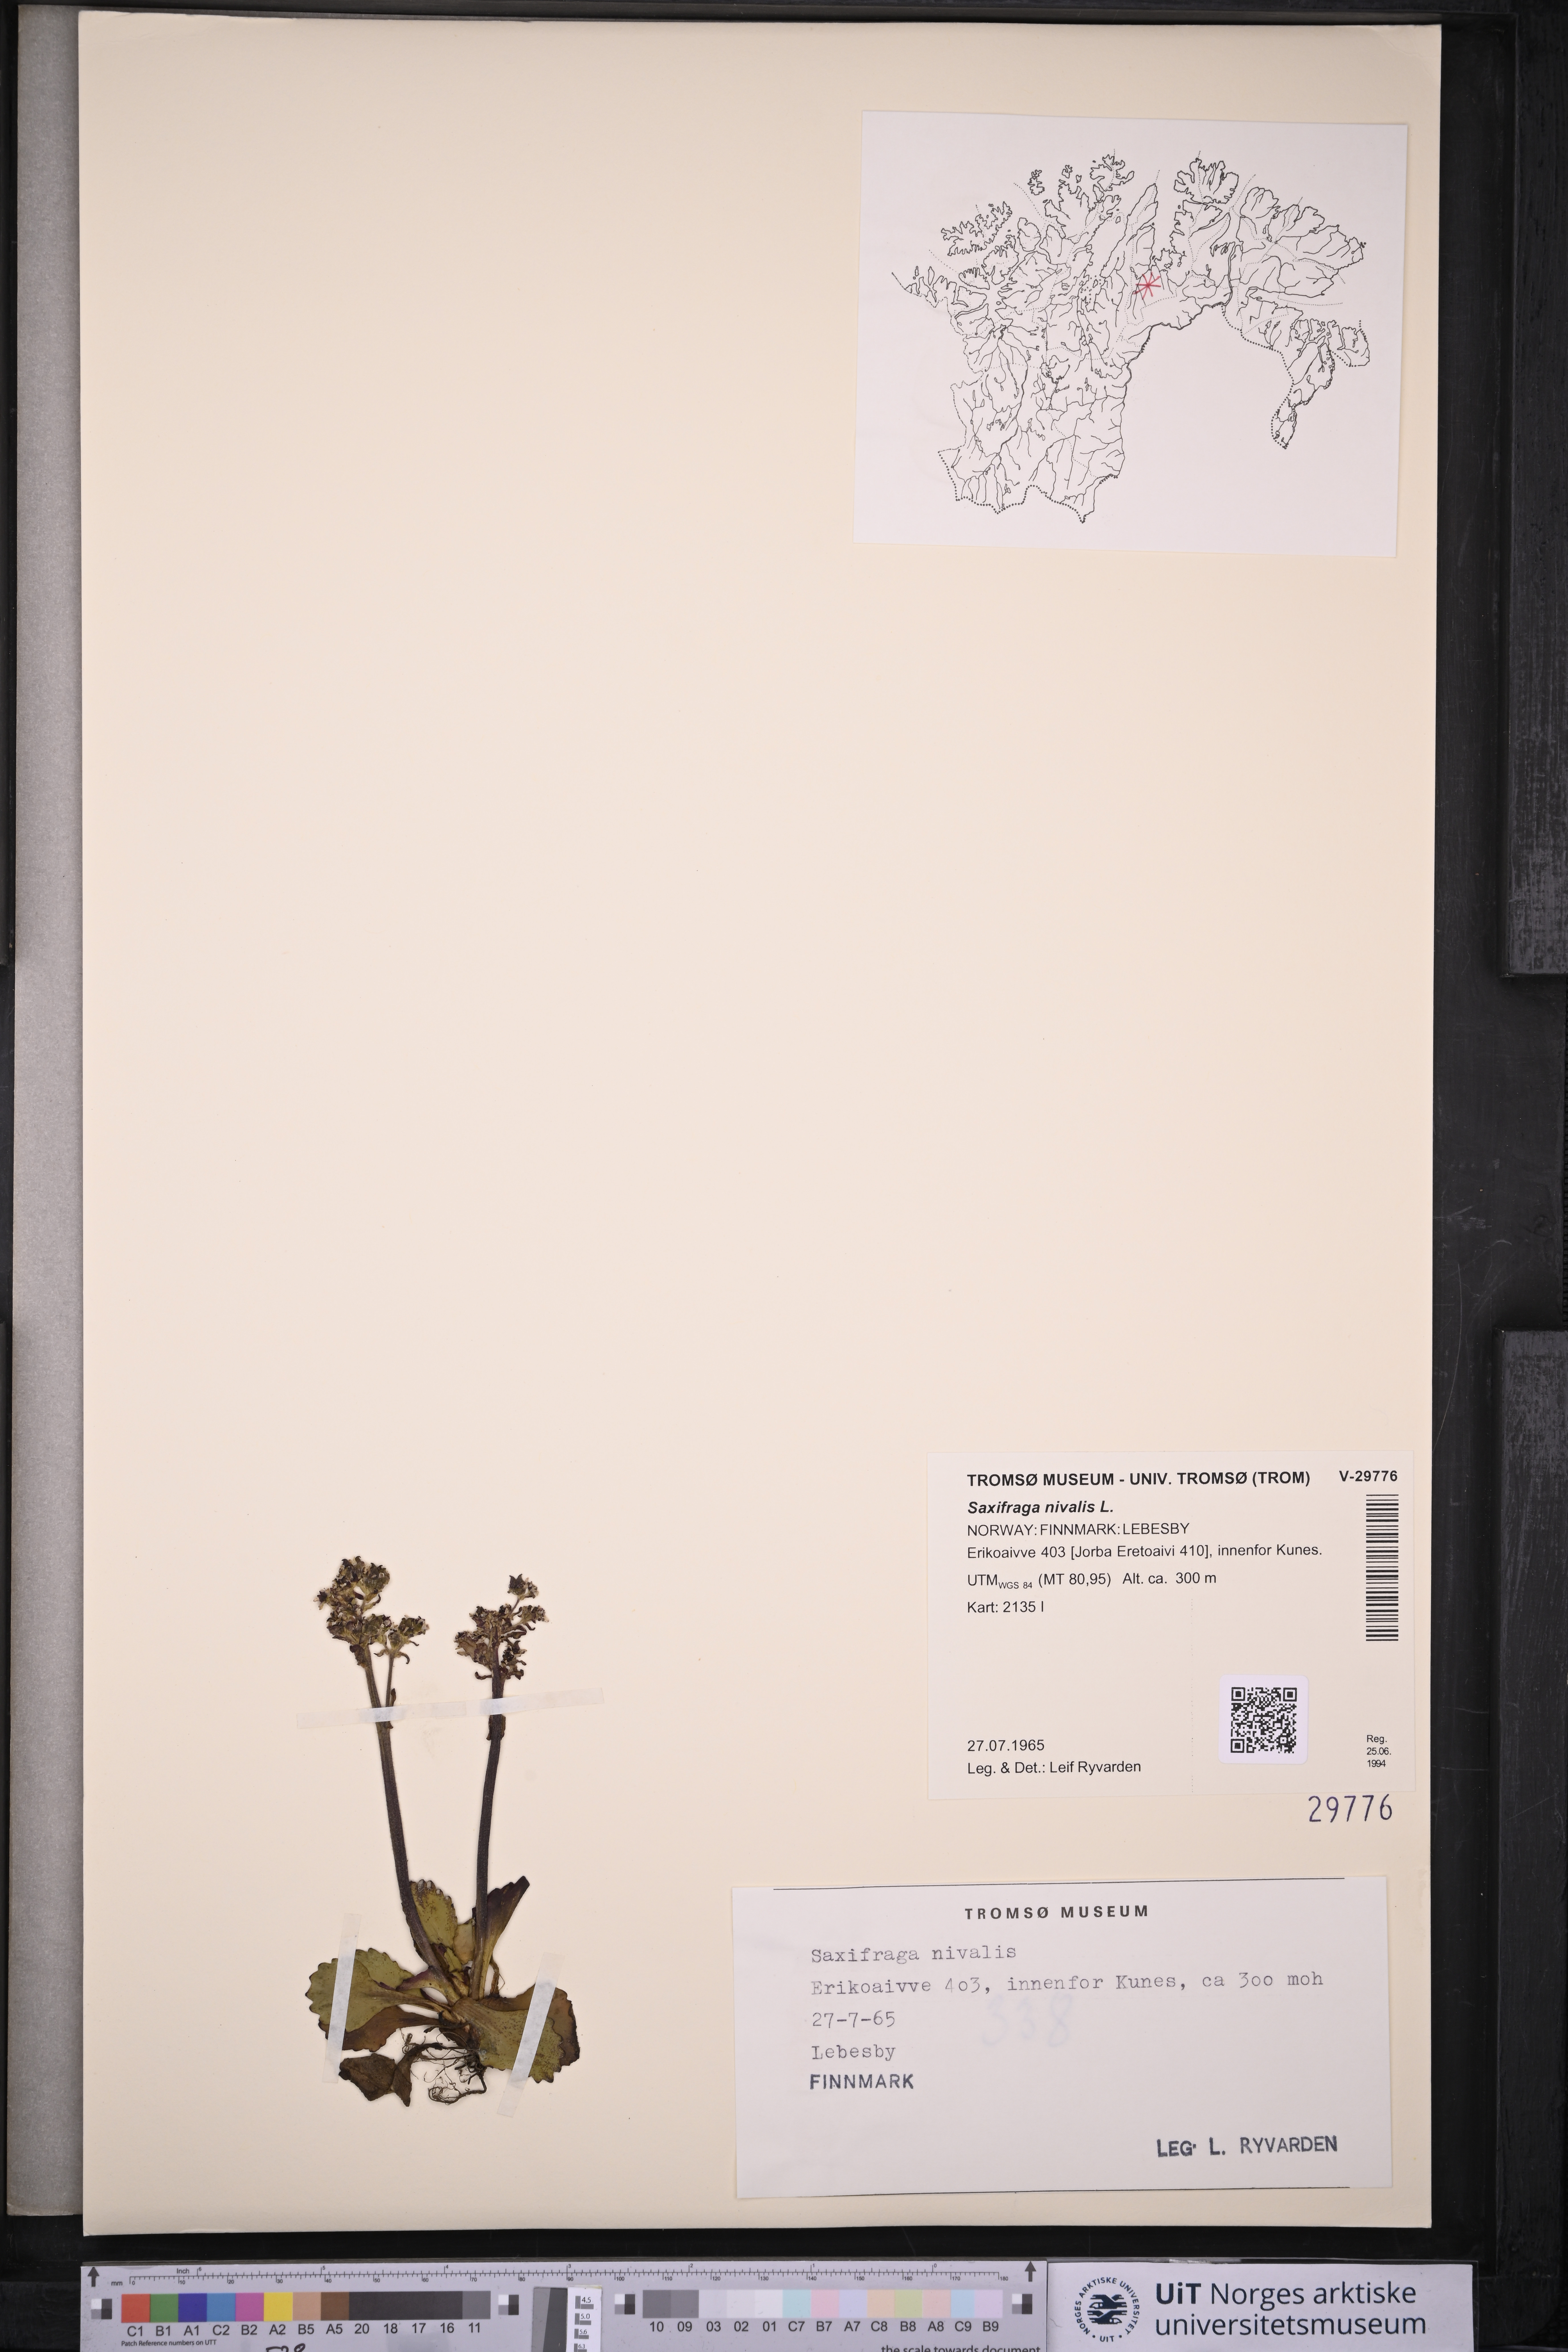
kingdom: Plantae
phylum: Tracheophyta
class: Magnoliopsida
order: Saxifragales
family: Saxifragaceae
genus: Micranthes
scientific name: Micranthes nivalis
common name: Alpine saxifrage
